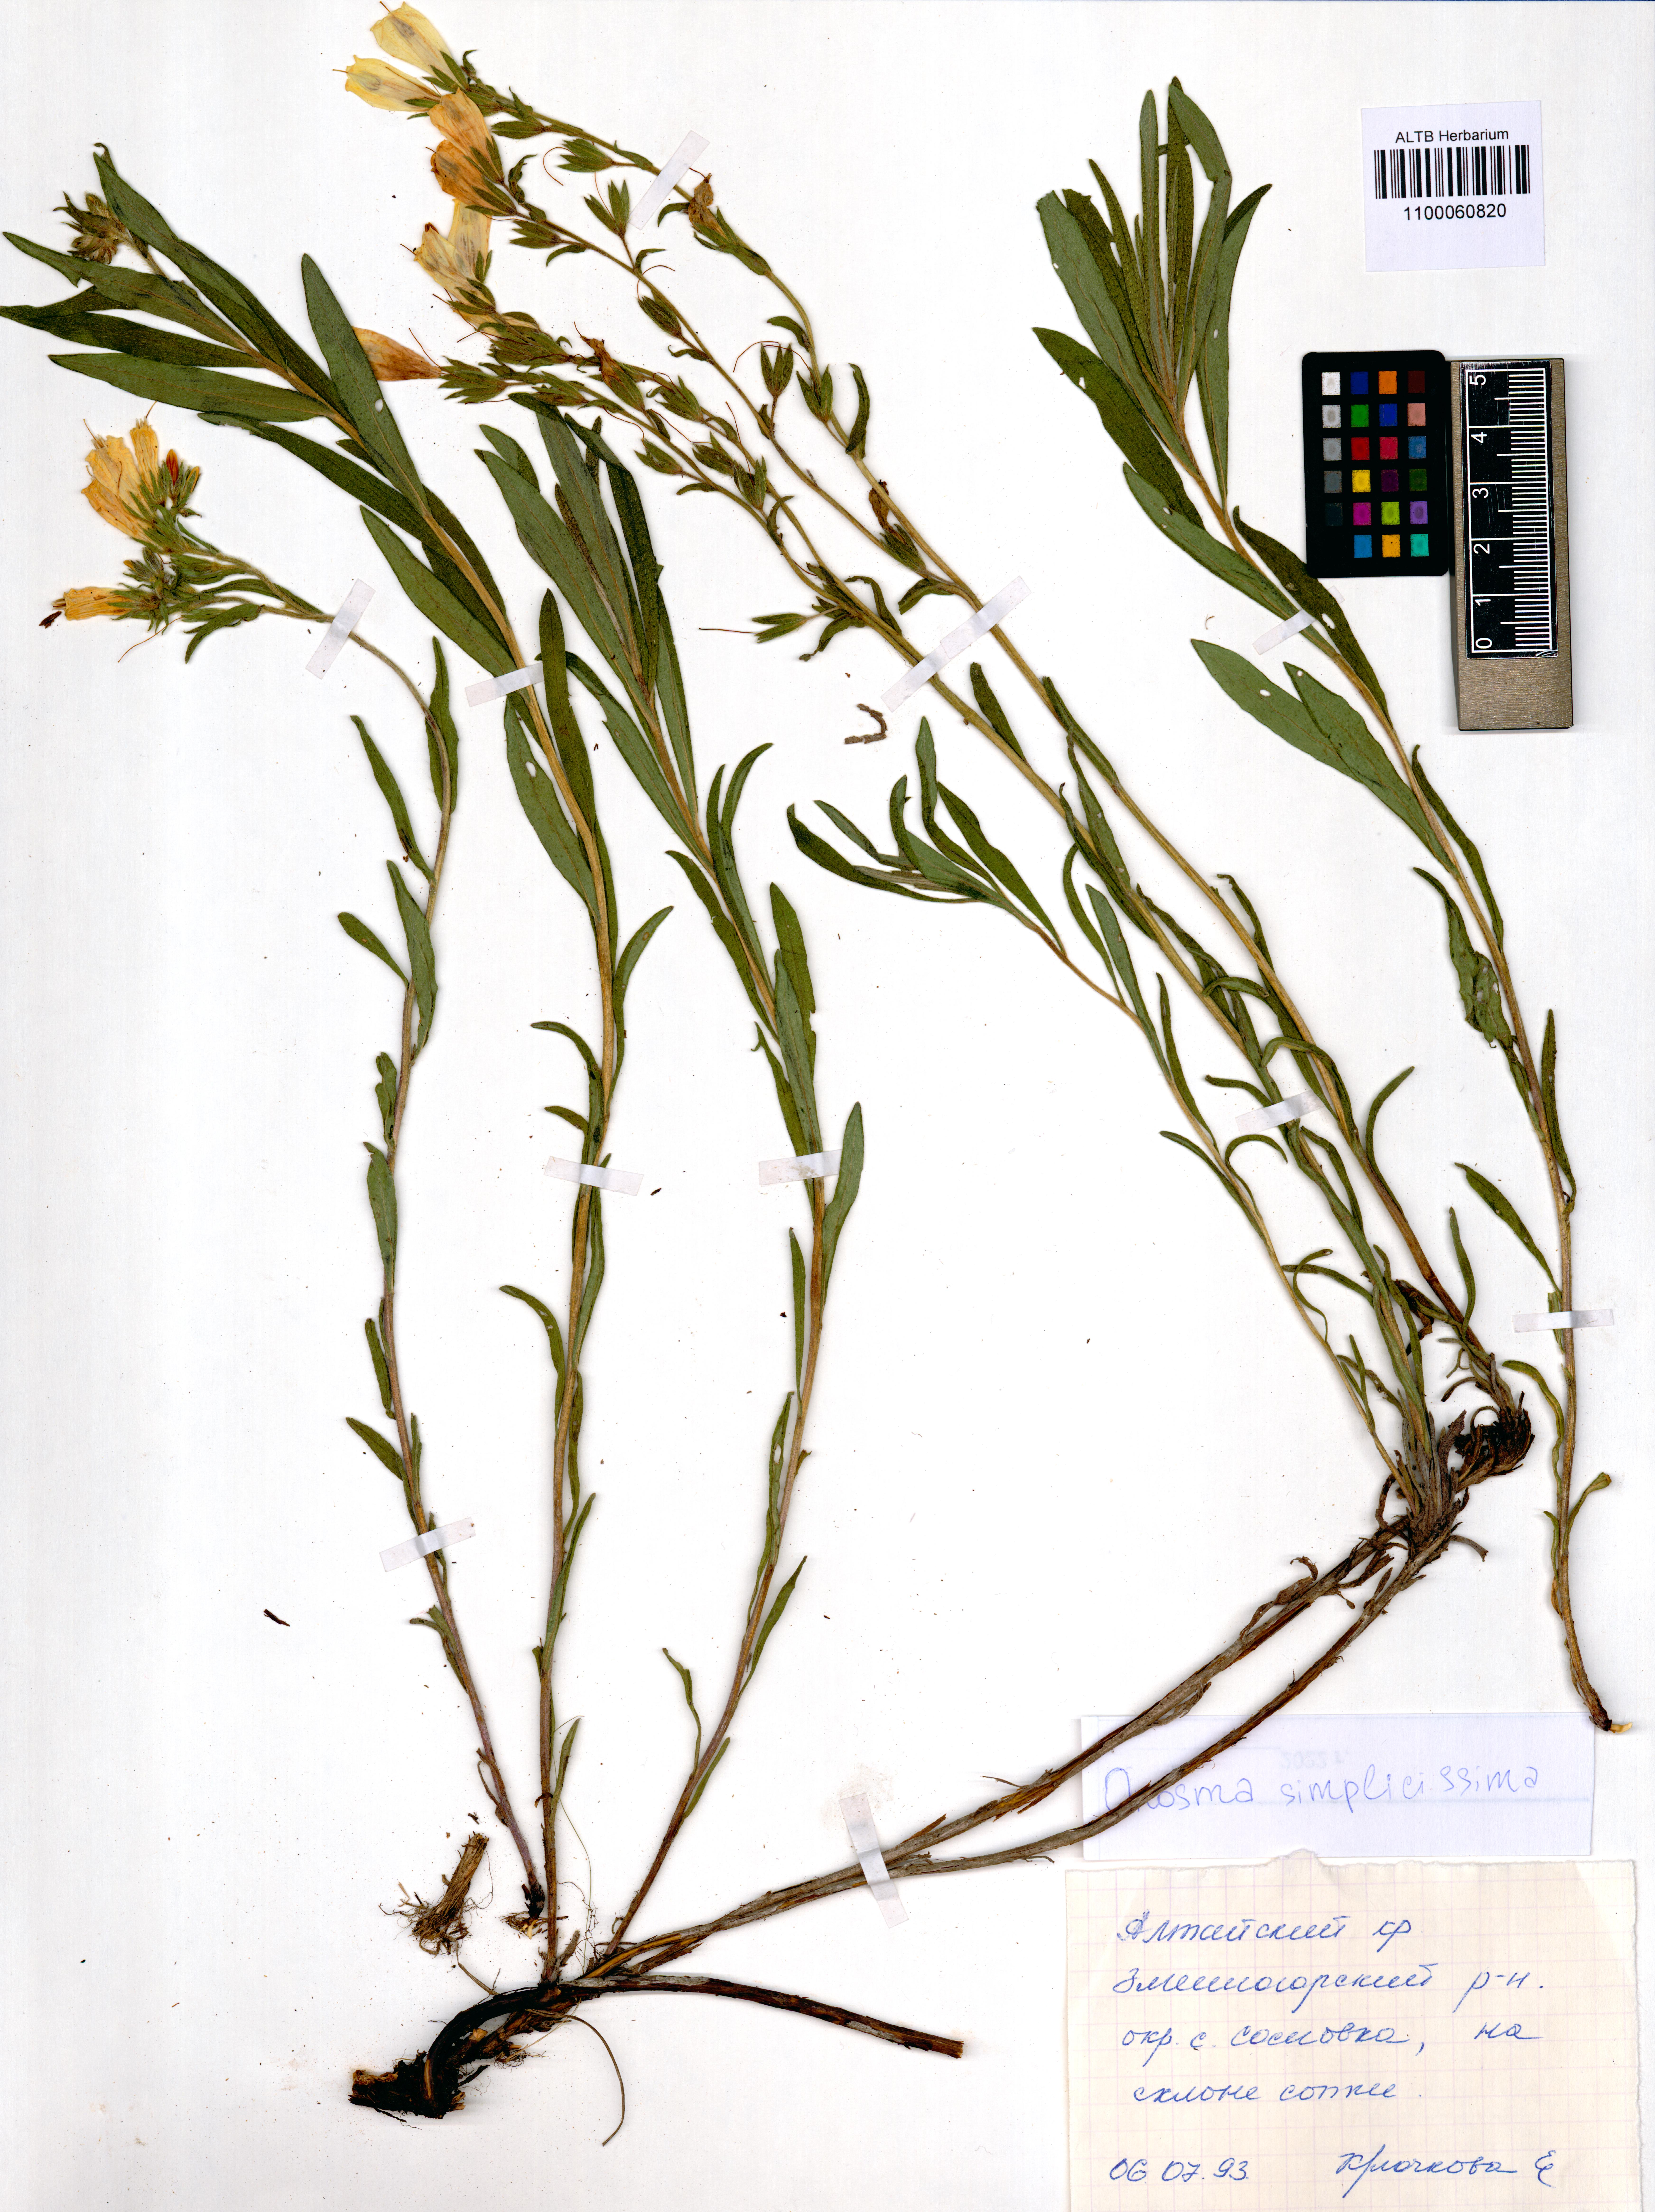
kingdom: Plantae
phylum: Tracheophyta
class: Magnoliopsida
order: Boraginales
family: Boraginaceae
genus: Onosma
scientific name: Onosma simplicissima
